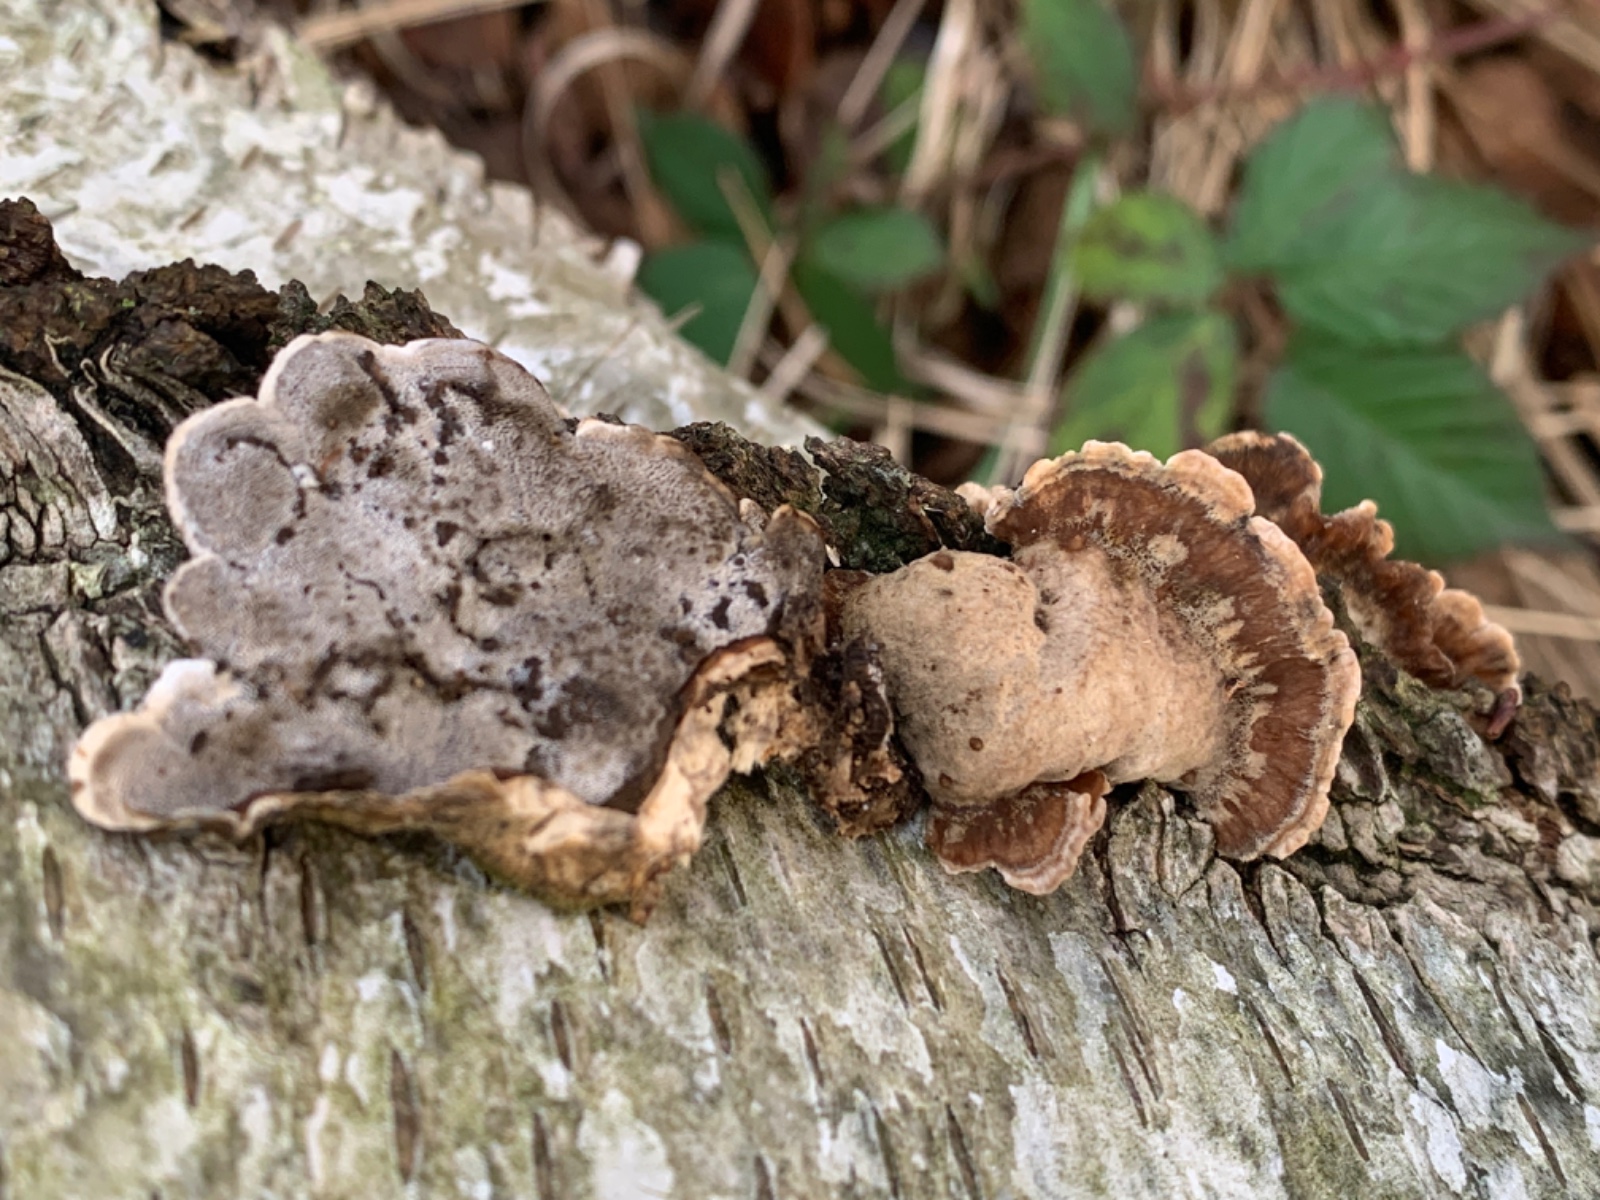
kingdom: Fungi
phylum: Basidiomycota
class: Agaricomycetes
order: Polyporales
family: Phanerochaetaceae
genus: Bjerkandera
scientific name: Bjerkandera adusta
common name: sveden sodporesvamp
